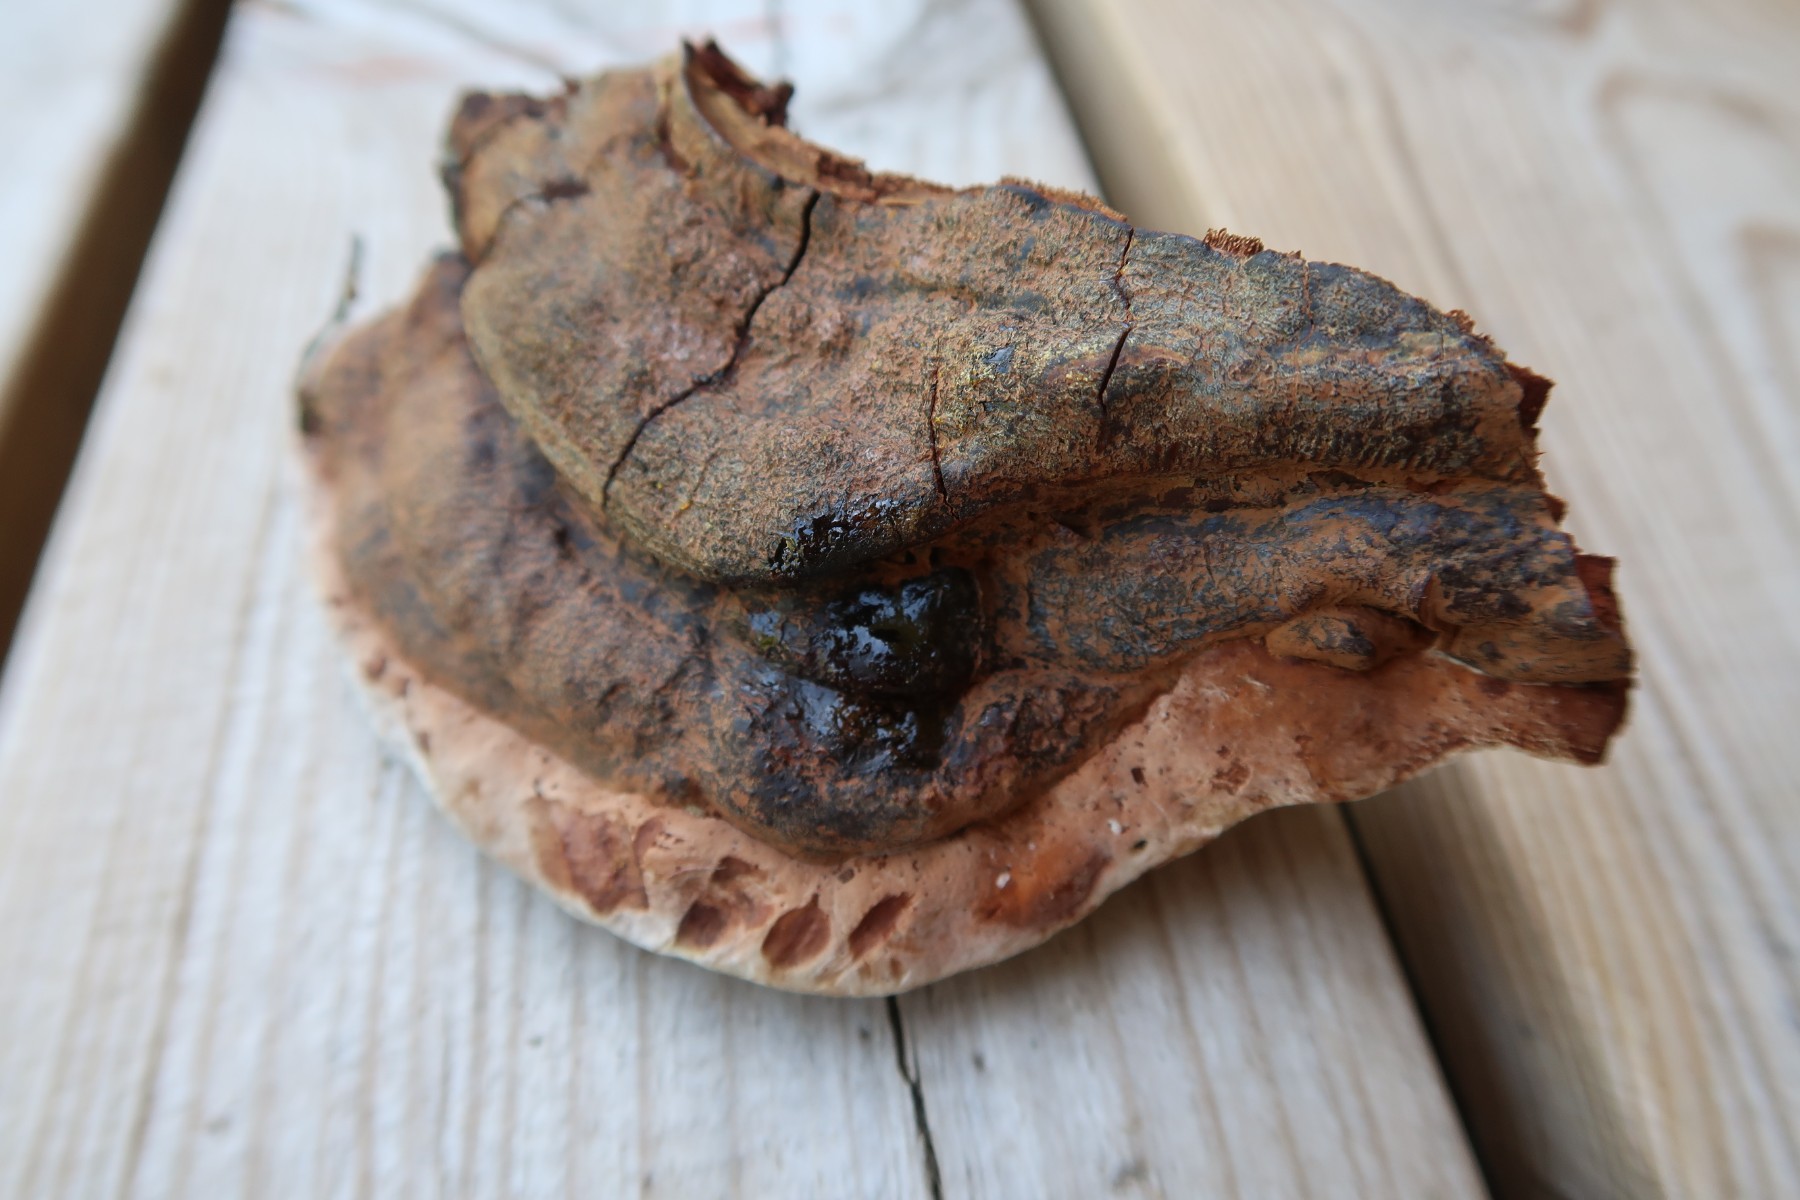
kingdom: Fungi
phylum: Basidiomycota
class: Agaricomycetes
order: Polyporales
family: Polyporaceae
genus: Ganoderma
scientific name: Ganoderma pfeifferi
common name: kobberrød lakporesvamp
